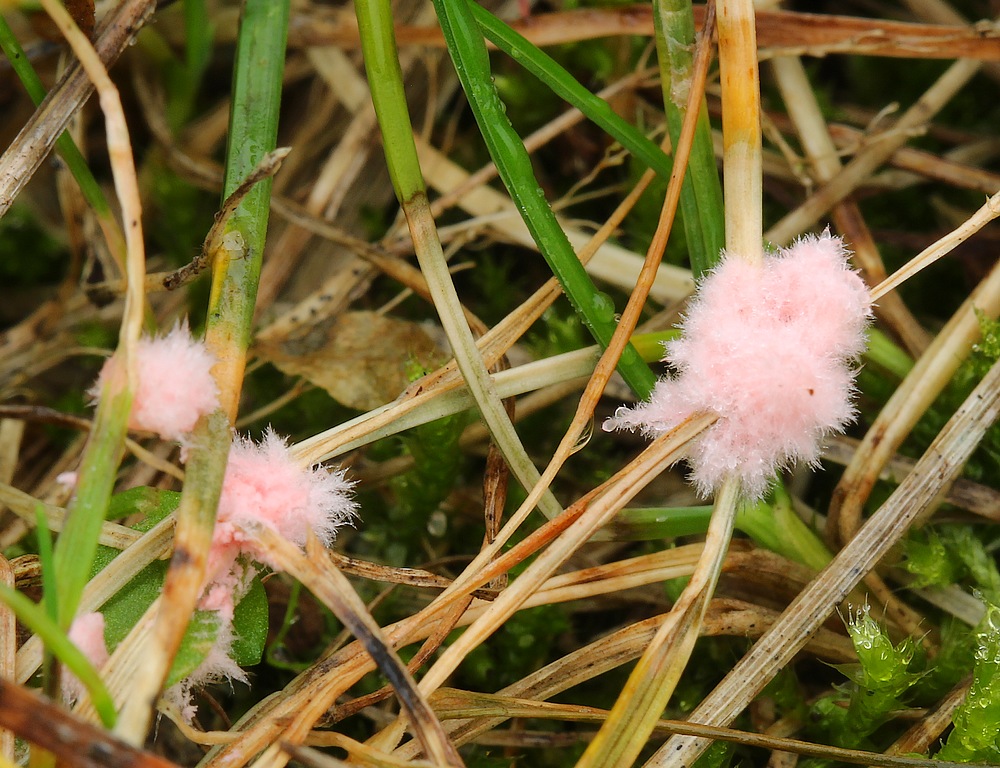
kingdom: Fungi
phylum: Basidiomycota
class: Agaricomycetes
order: Corticiales
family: Corticiaceae
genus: Laetisaria
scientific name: Laetisaria
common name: rødtråd
